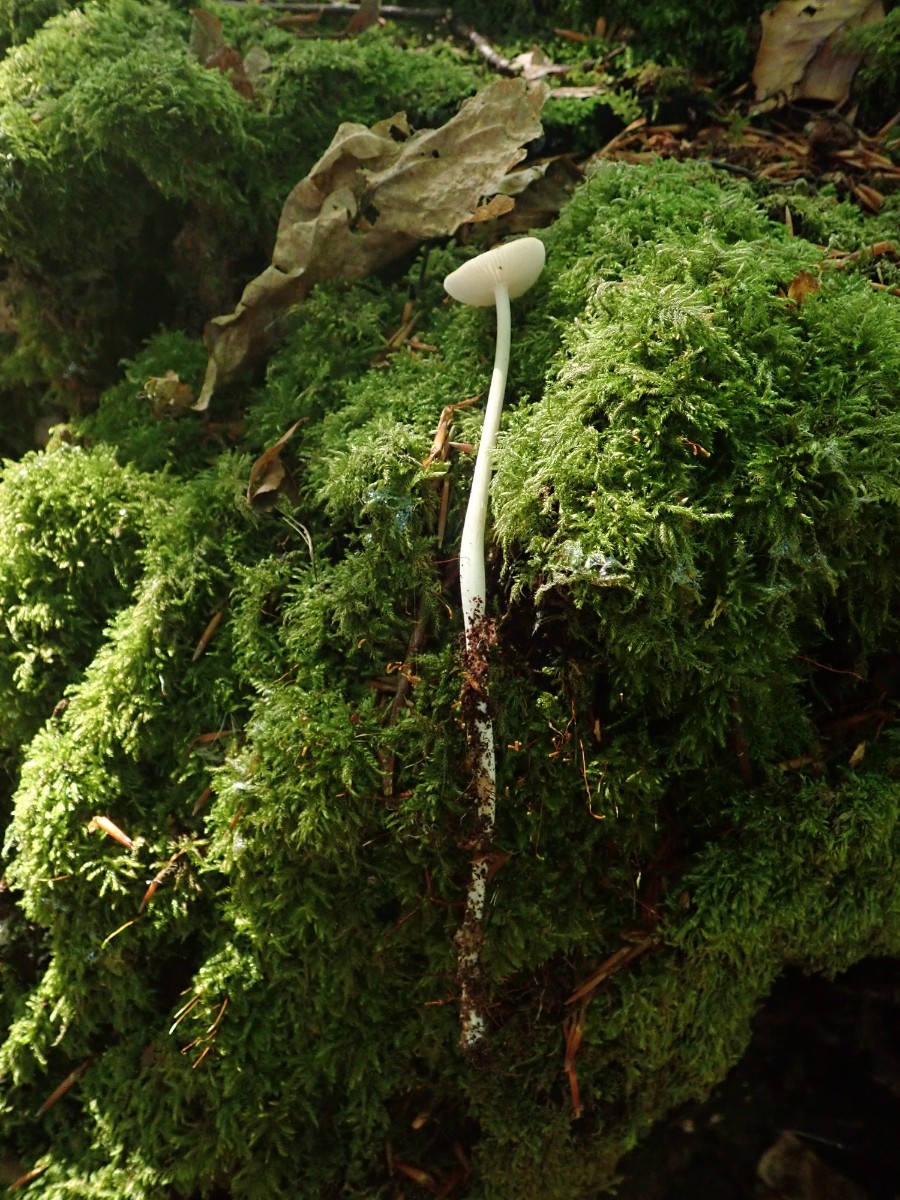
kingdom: Fungi
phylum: Basidiomycota
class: Agaricomycetes
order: Agaricales
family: Physalacriaceae
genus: Hymenopellis
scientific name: Hymenopellis radicata
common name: almindelig pælerodshat
